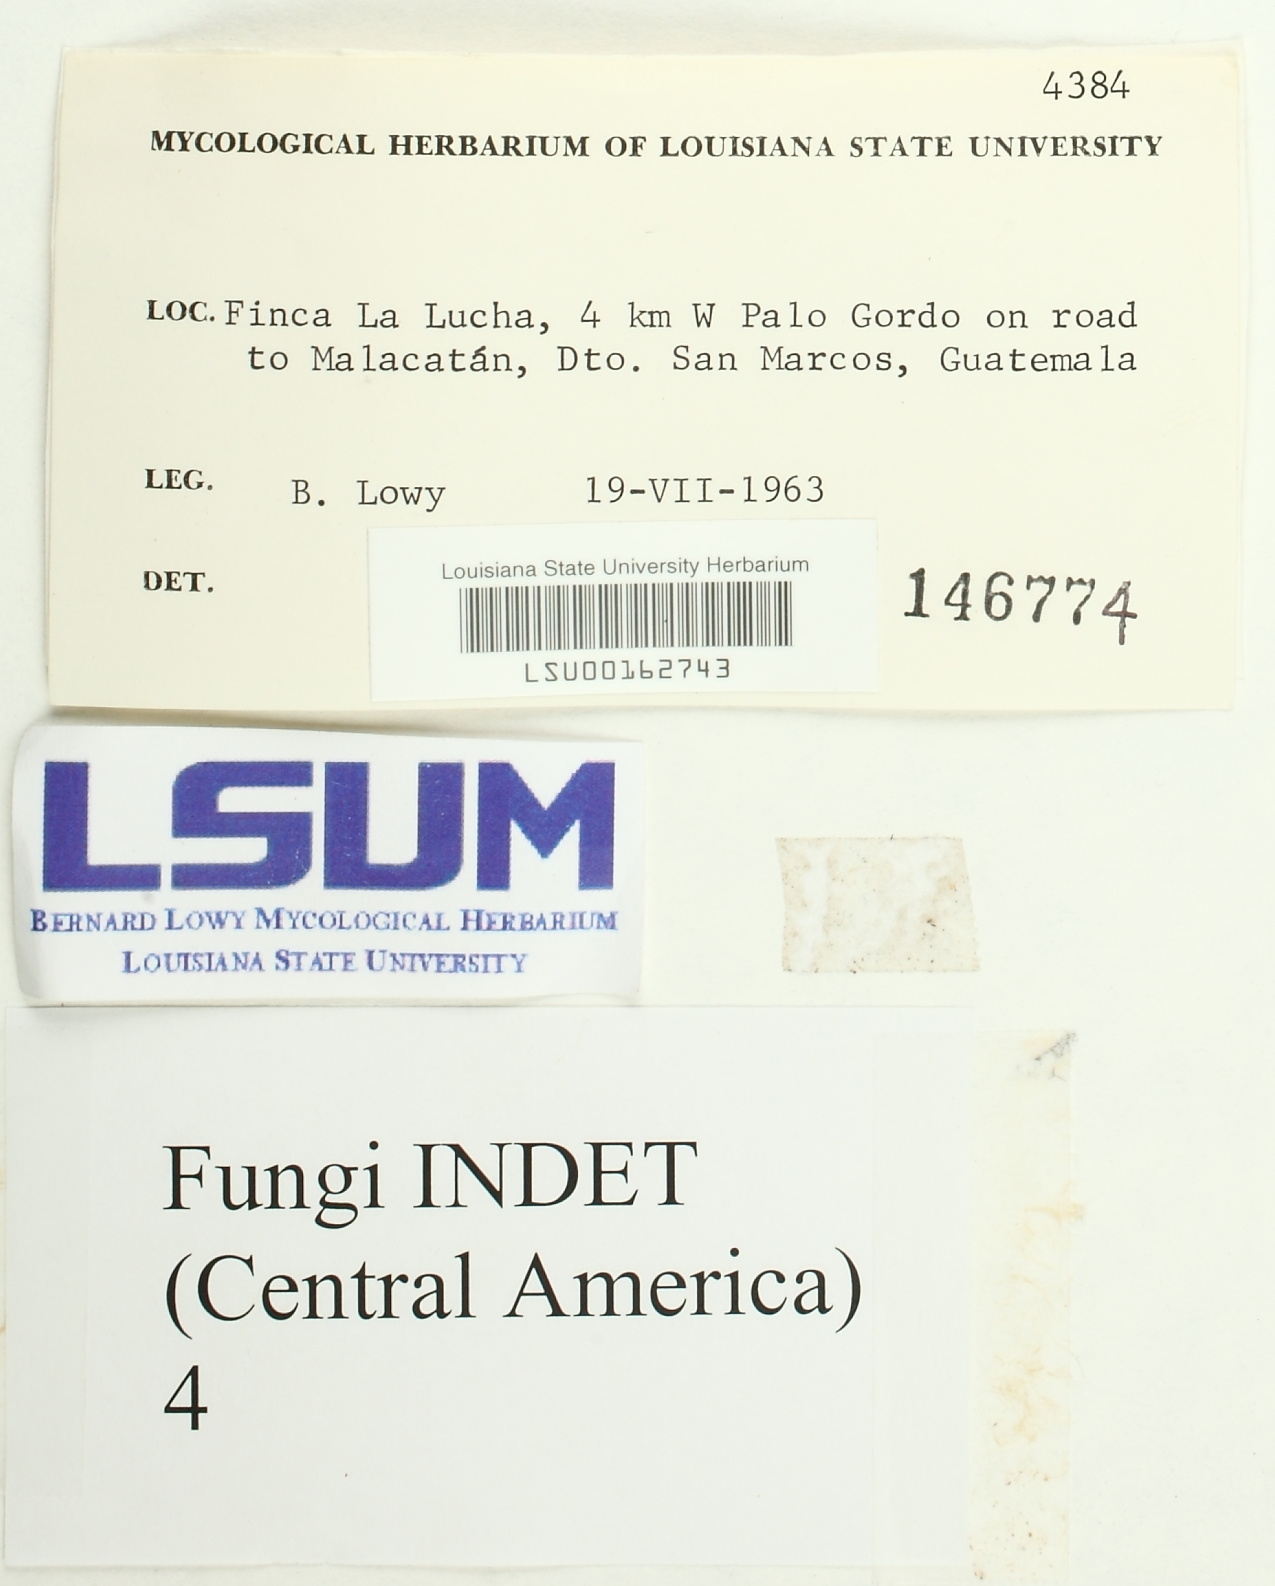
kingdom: Fungi
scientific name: Fungi
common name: Fungi
